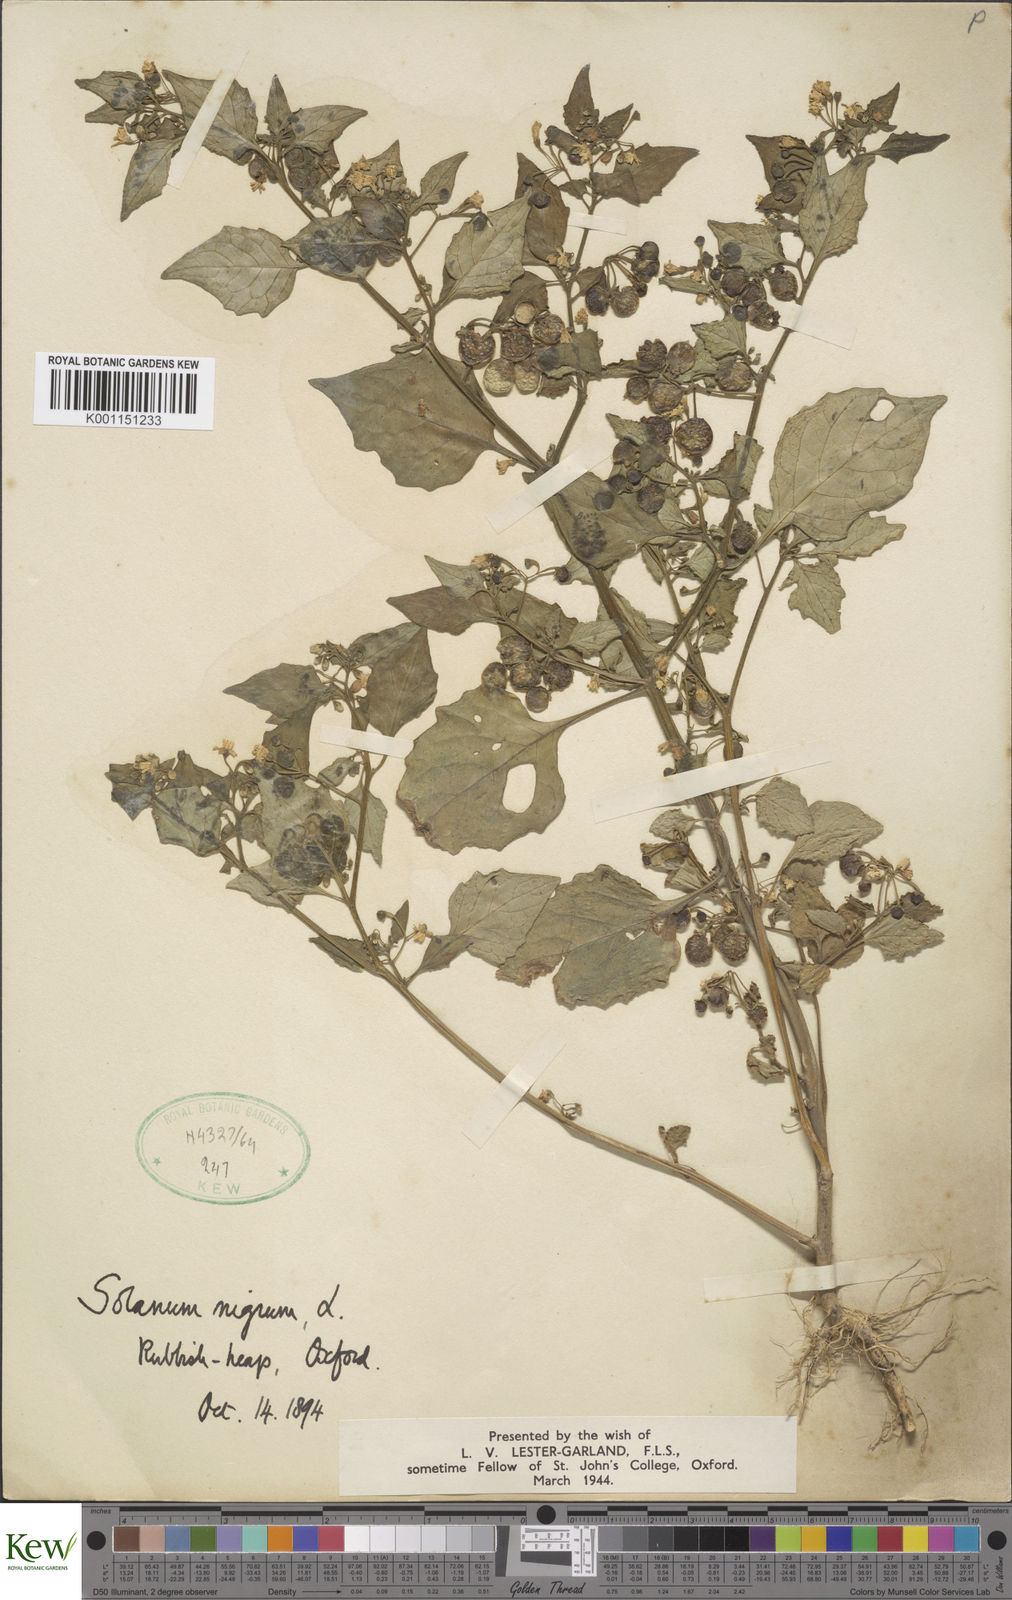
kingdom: Plantae
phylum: Tracheophyta
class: Magnoliopsida
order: Solanales
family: Solanaceae
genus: Solanum
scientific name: Solanum nigrum
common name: Black nightshade
